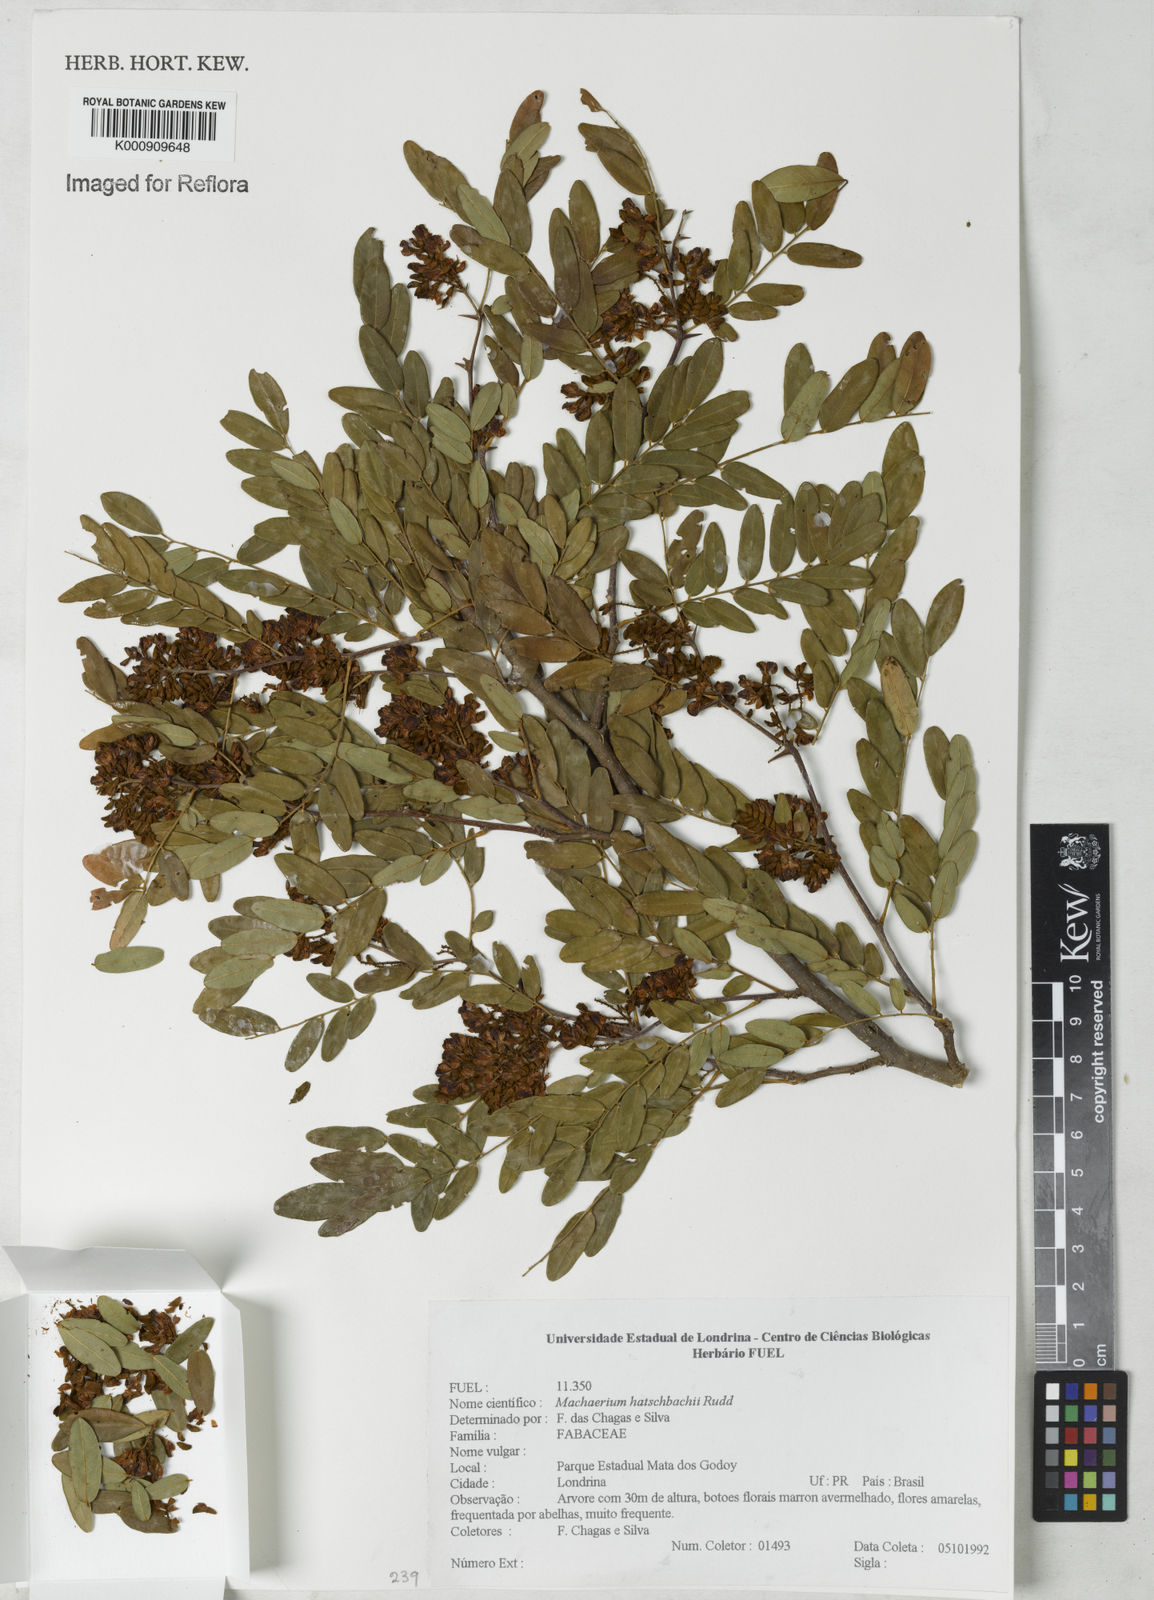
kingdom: Plantae
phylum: Tracheophyta
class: Magnoliopsida
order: Fabales
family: Fabaceae
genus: Machaerium
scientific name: Machaerium hatschbachii
